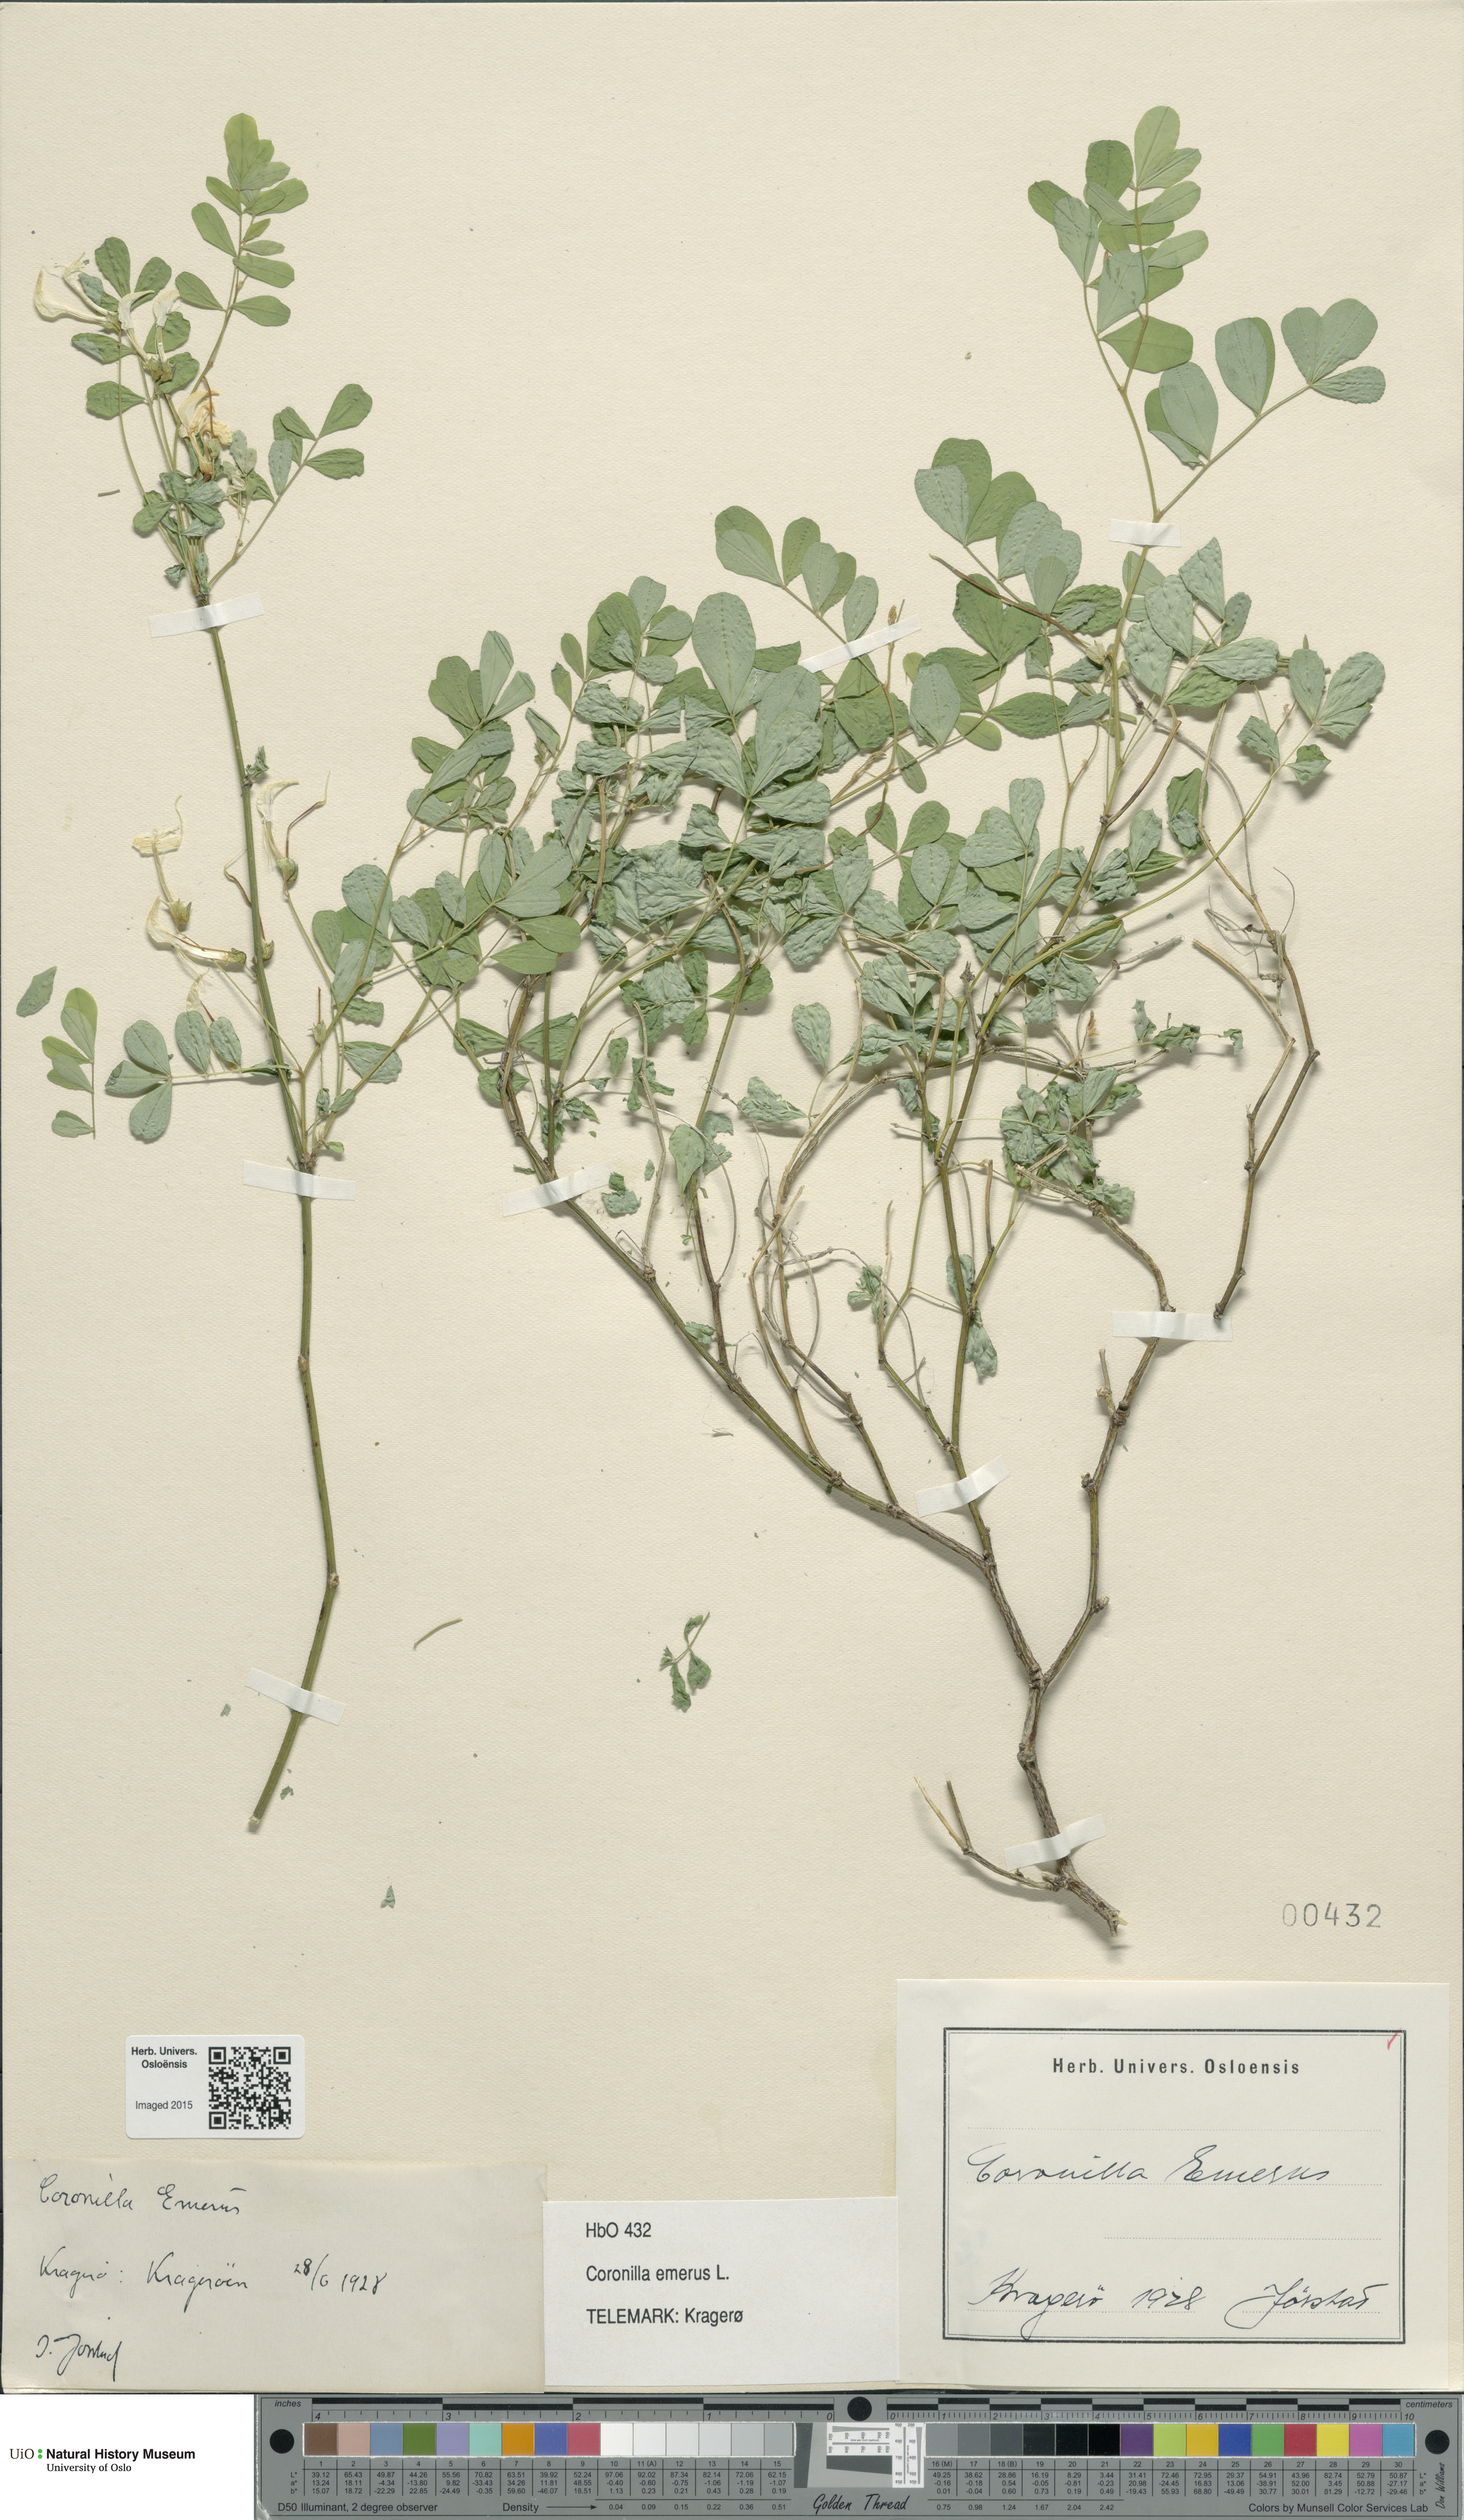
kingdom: Plantae
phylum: Tracheophyta
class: Magnoliopsida
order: Fabales
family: Fabaceae
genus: Hippocrepis
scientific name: Hippocrepis emerus
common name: Scorpion senna
